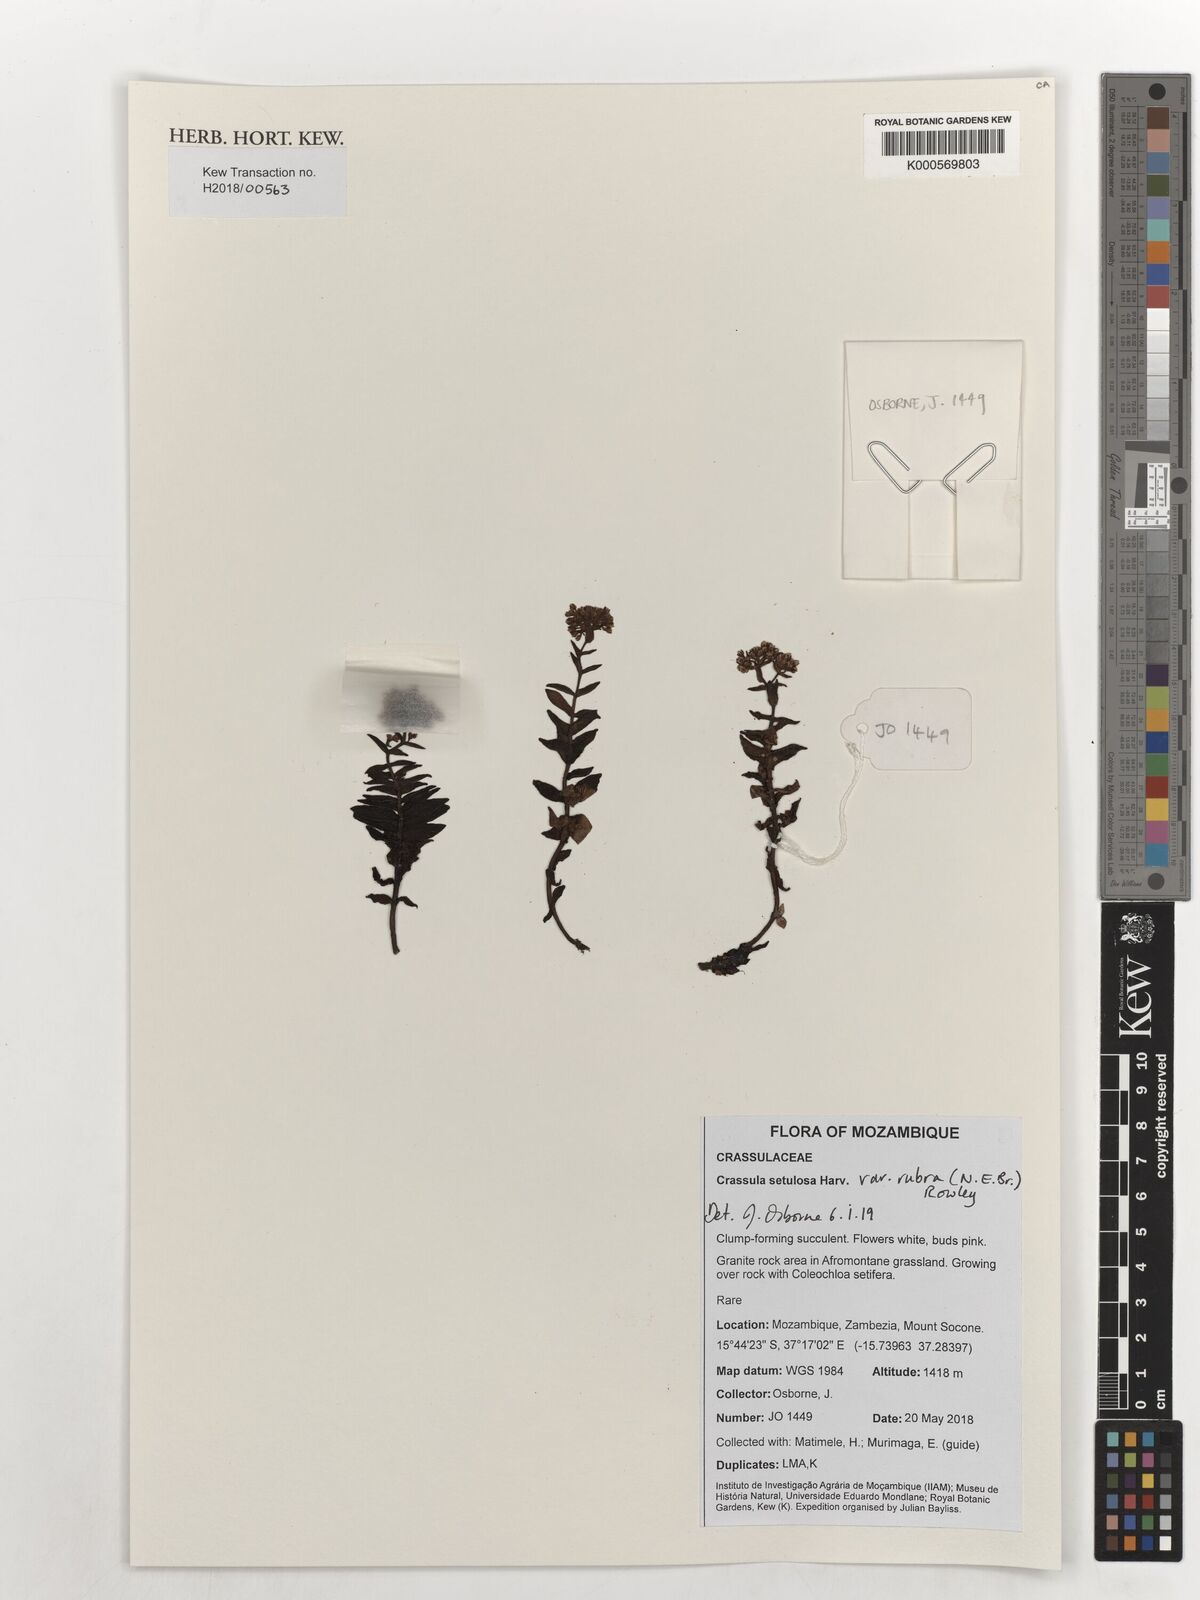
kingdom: Plantae
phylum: Tracheophyta
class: Magnoliopsida
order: Saxifragales
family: Crassulaceae
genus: Crassula
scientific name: Crassula setulosa
